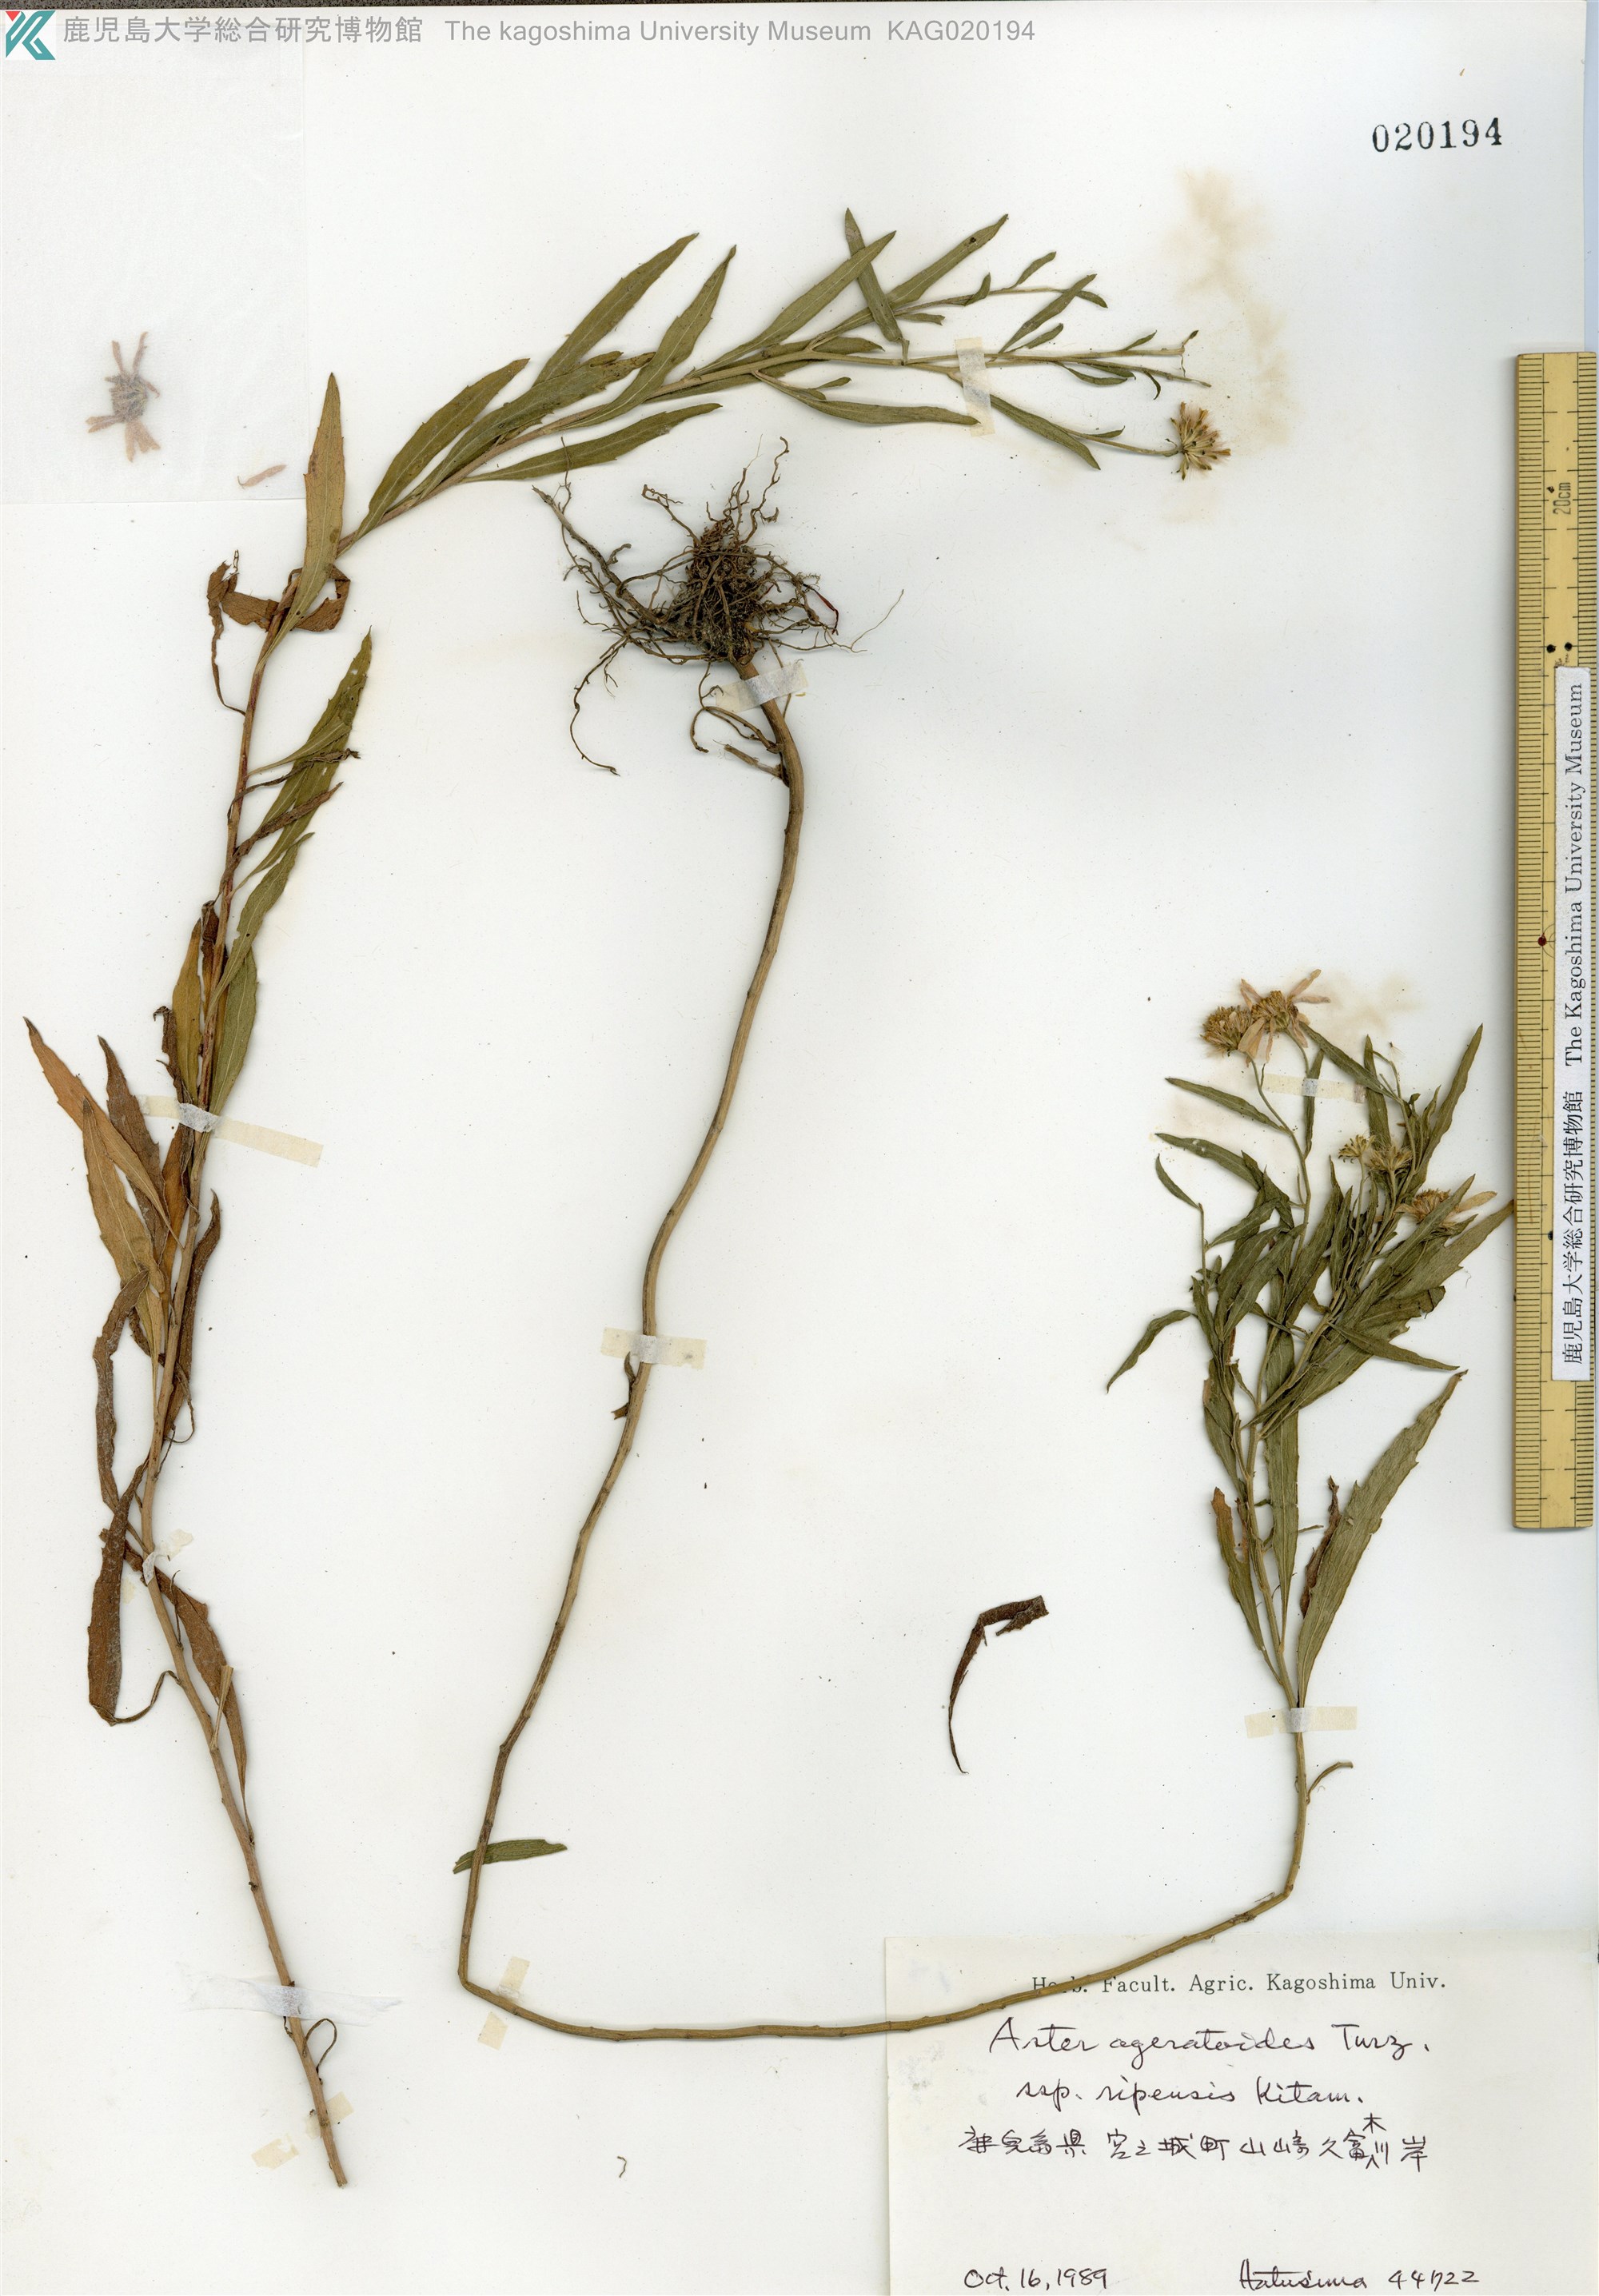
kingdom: Plantae
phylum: Tracheophyta
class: Magnoliopsida
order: Asterales
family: Asteraceae
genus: Aster
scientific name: Aster microcephalus
